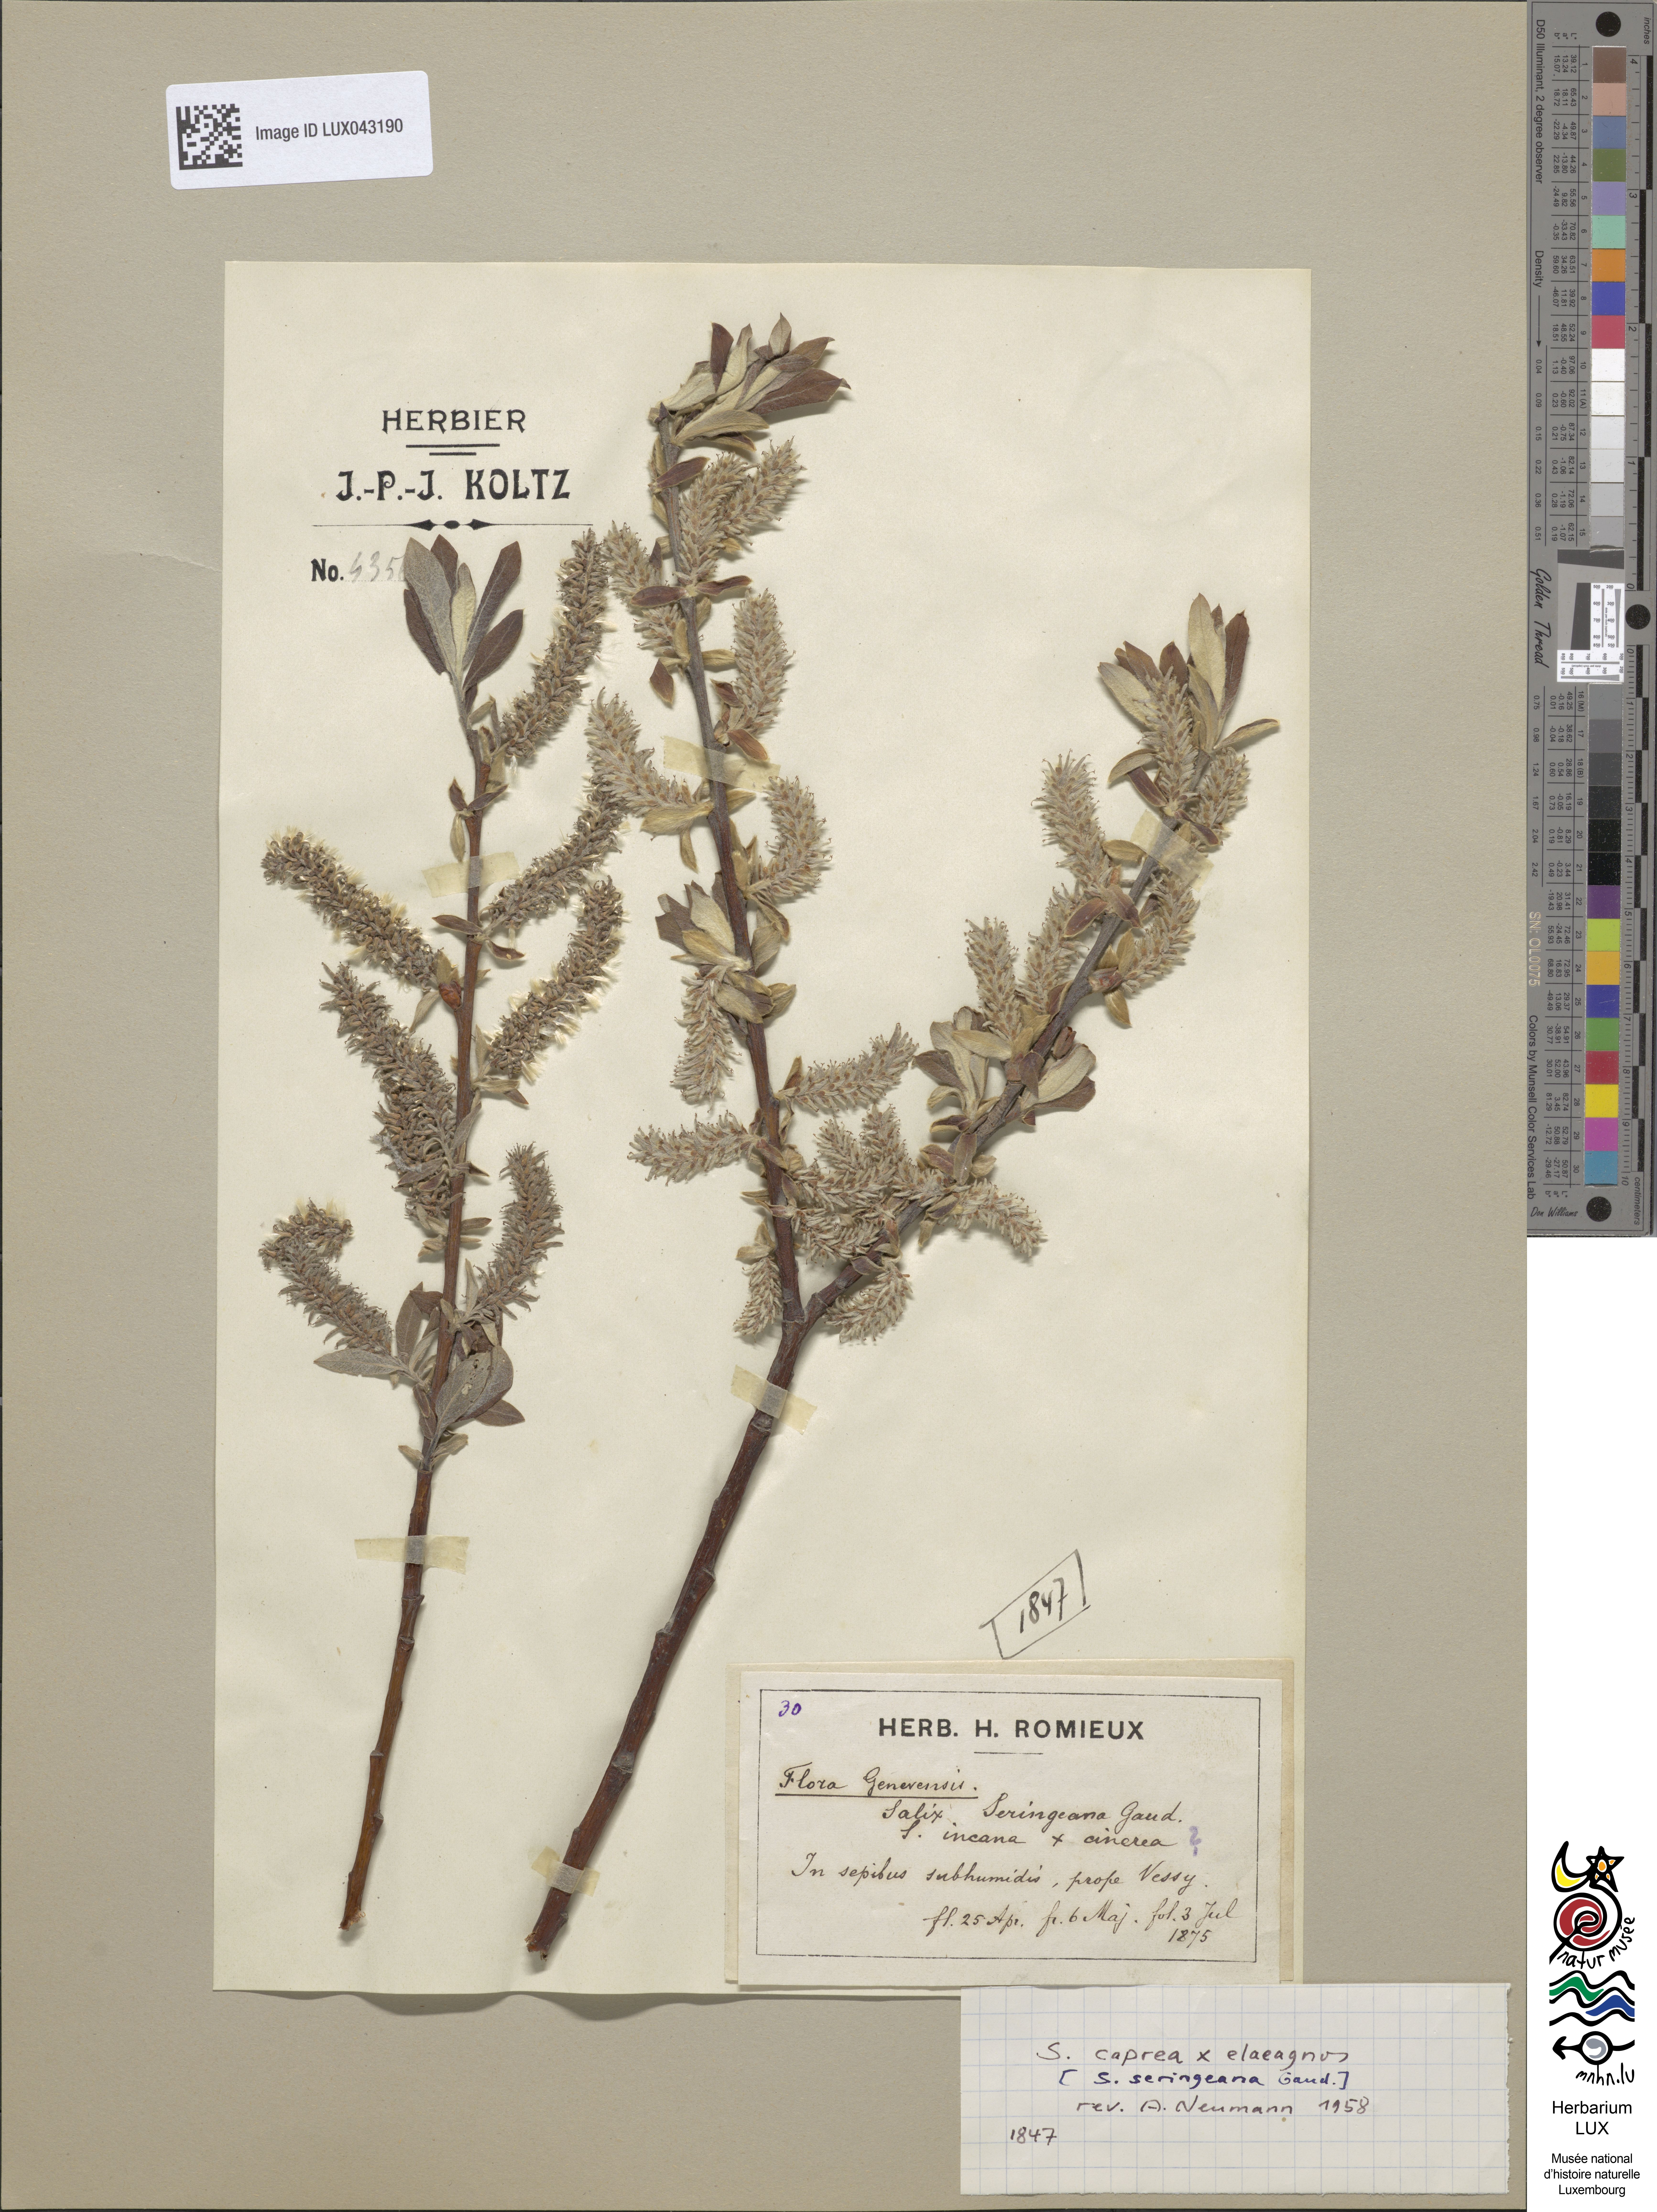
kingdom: Plantae
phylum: Tracheophyta
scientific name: Tracheophyta
